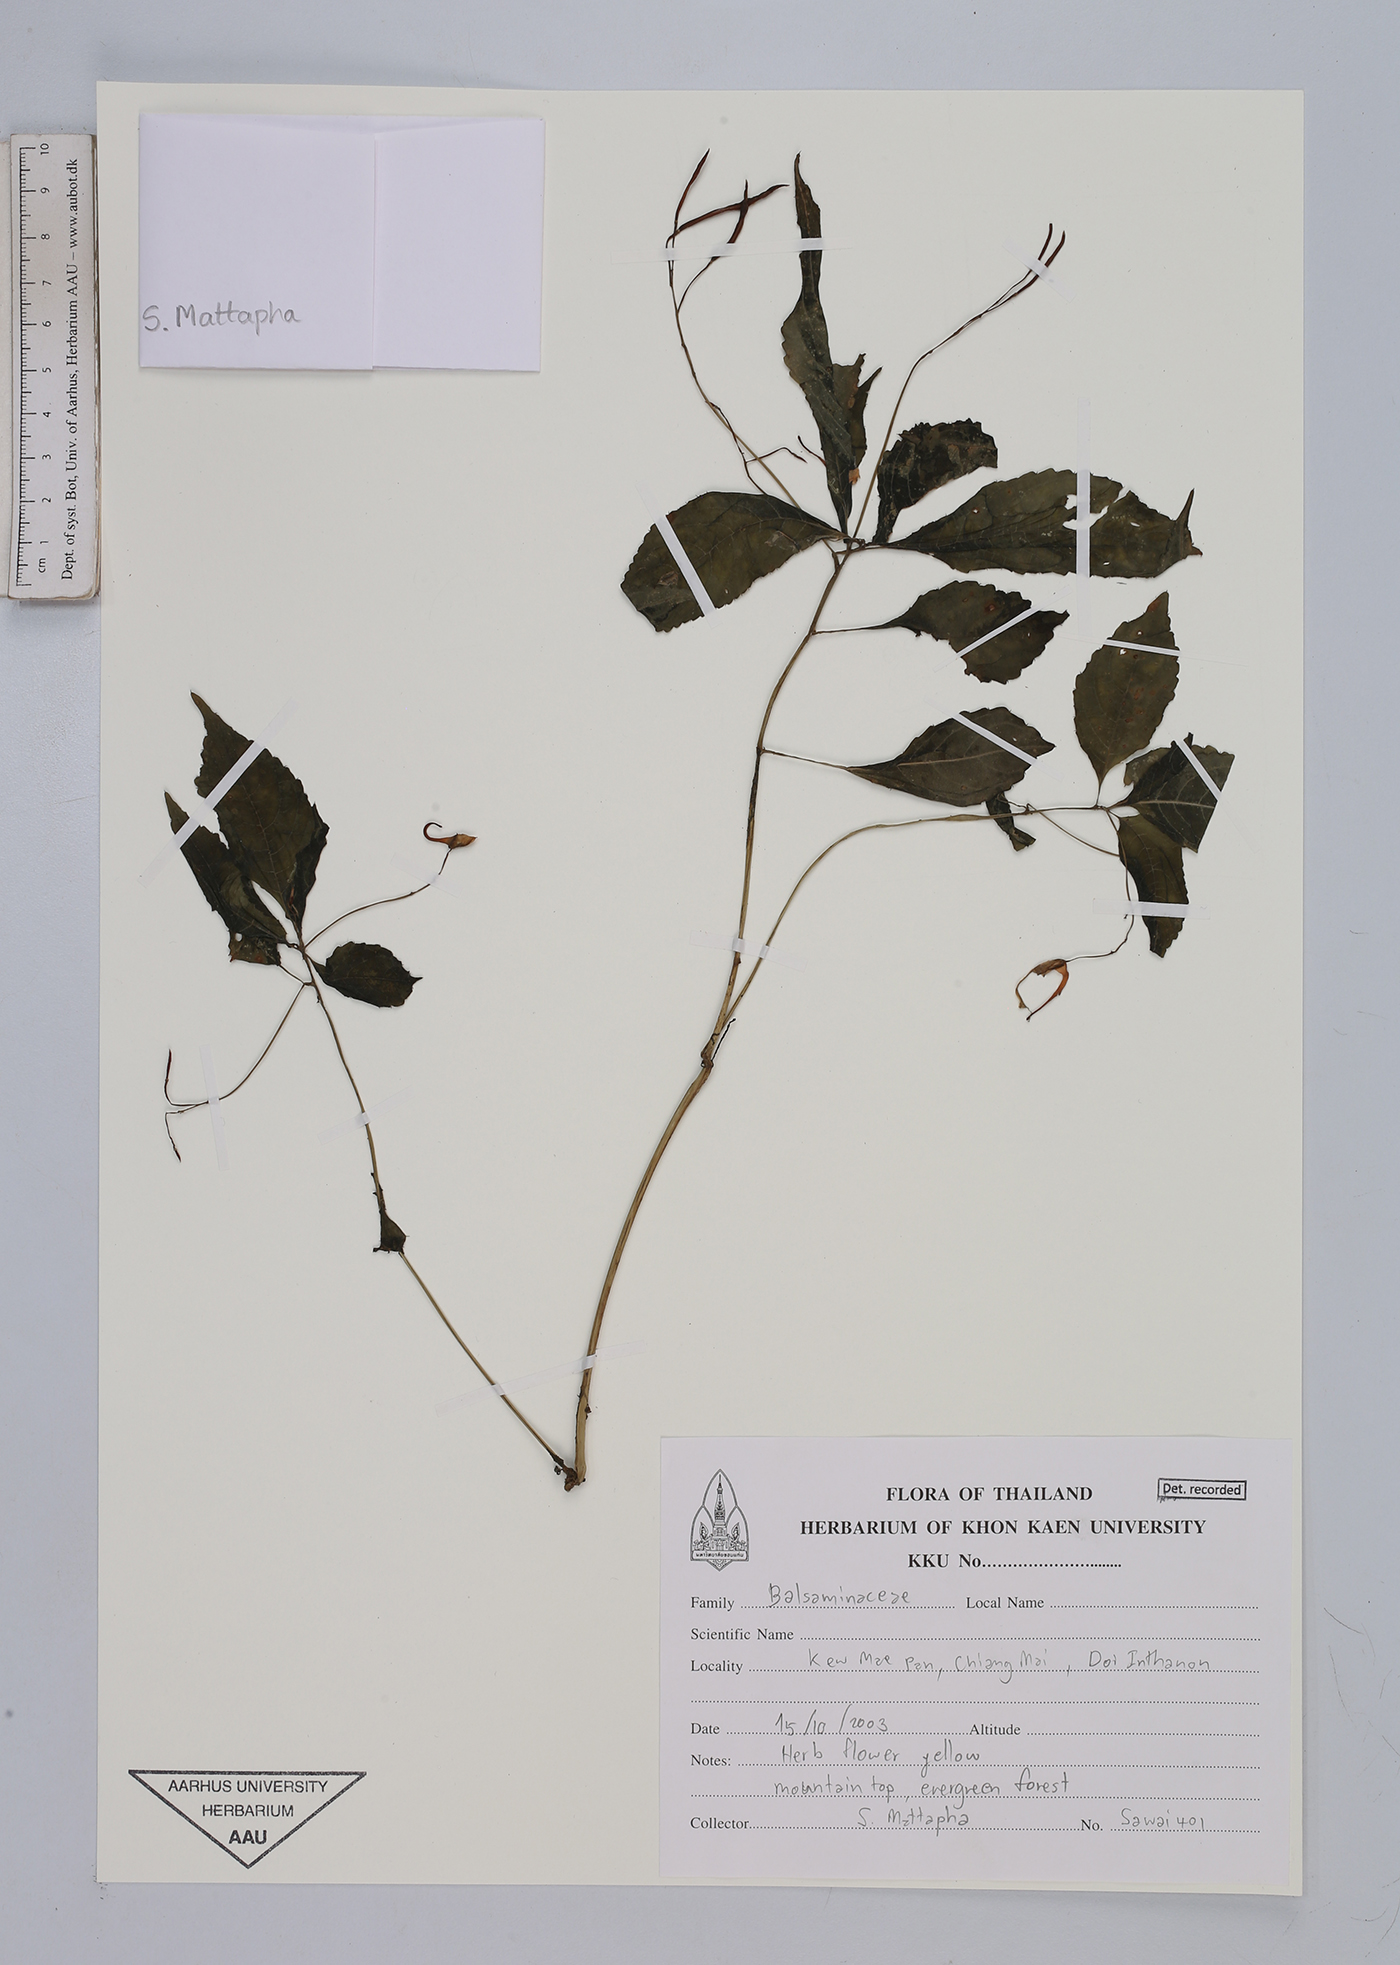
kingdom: Plantae
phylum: Tracheophyta
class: Magnoliopsida
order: Ericales
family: Balsaminaceae
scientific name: Balsaminaceae
